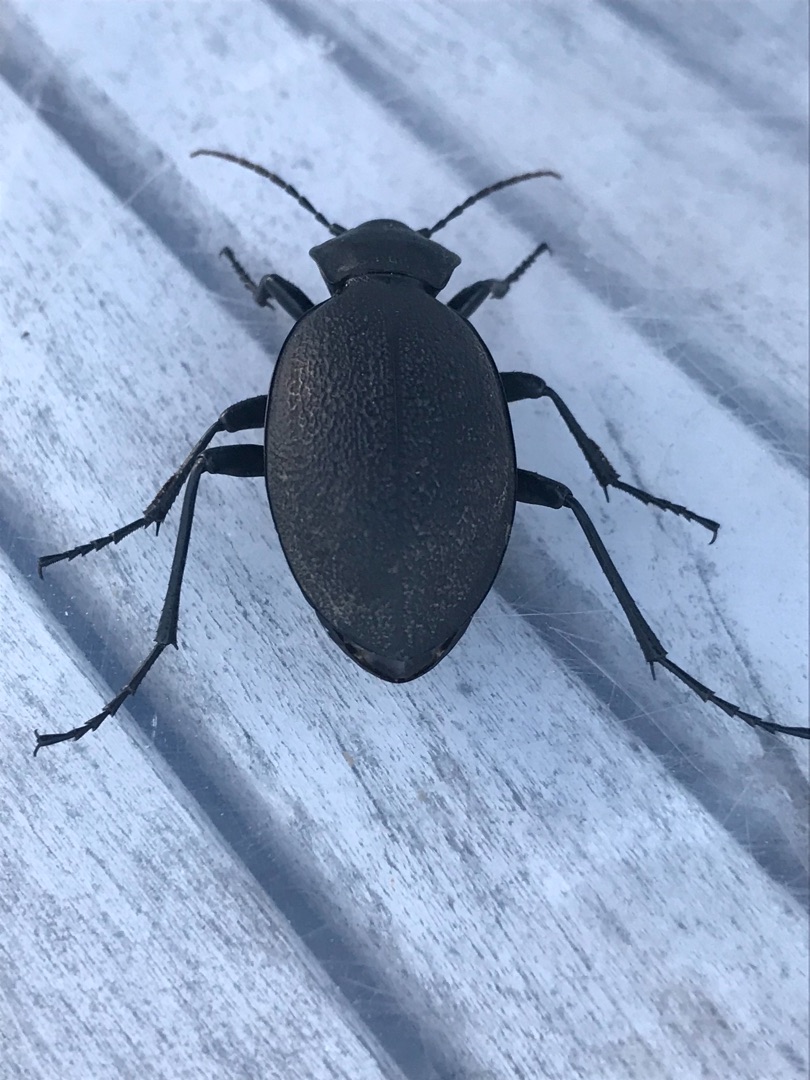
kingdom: Animalia
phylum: Arthropoda
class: Insecta
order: Coleoptera
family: Carabidae
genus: Carabus
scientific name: Carabus coriaceus
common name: Læderløber
